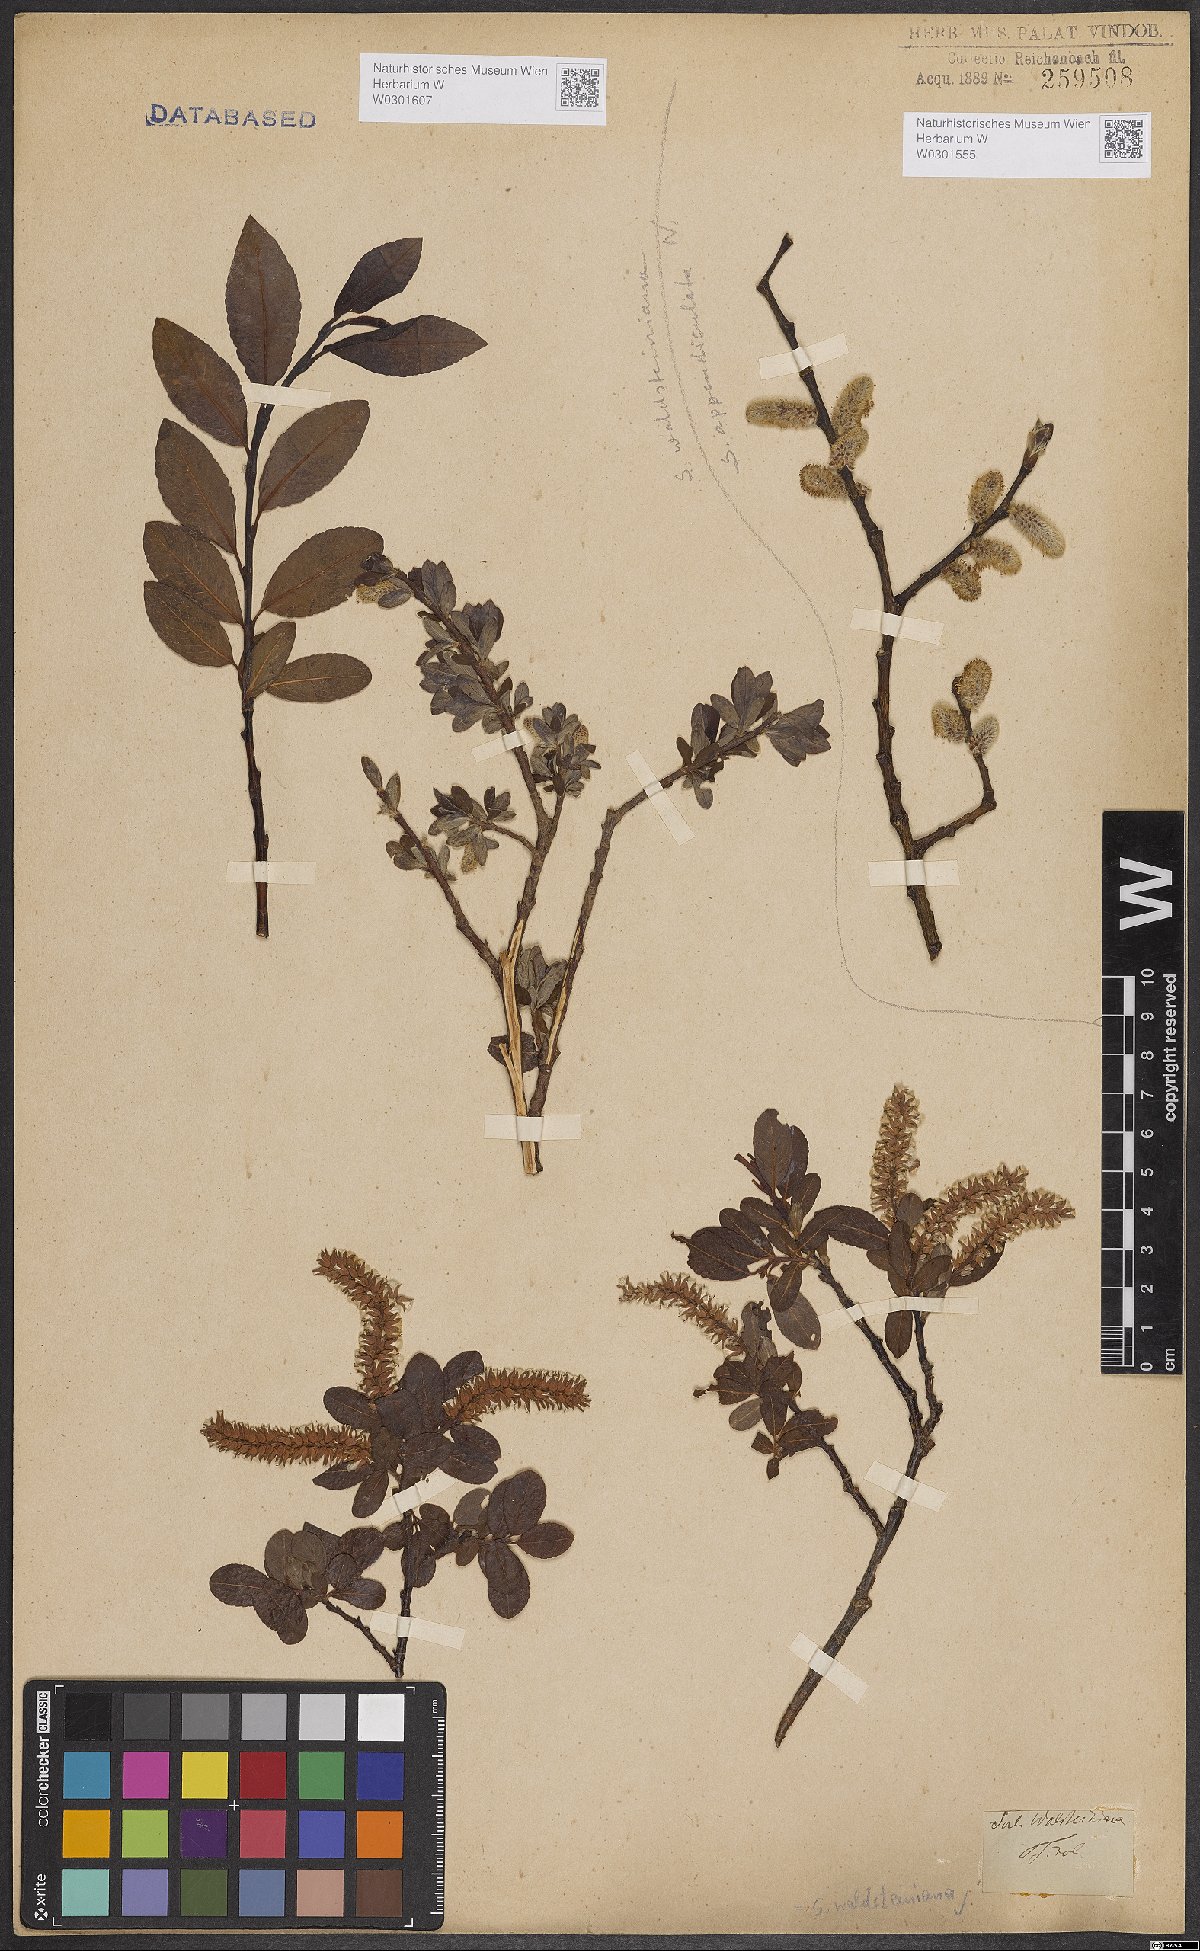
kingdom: Plantae
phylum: Tracheophyta
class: Magnoliopsida
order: Malpighiales
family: Salicaceae
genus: Salix
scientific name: Salix appendiculata
